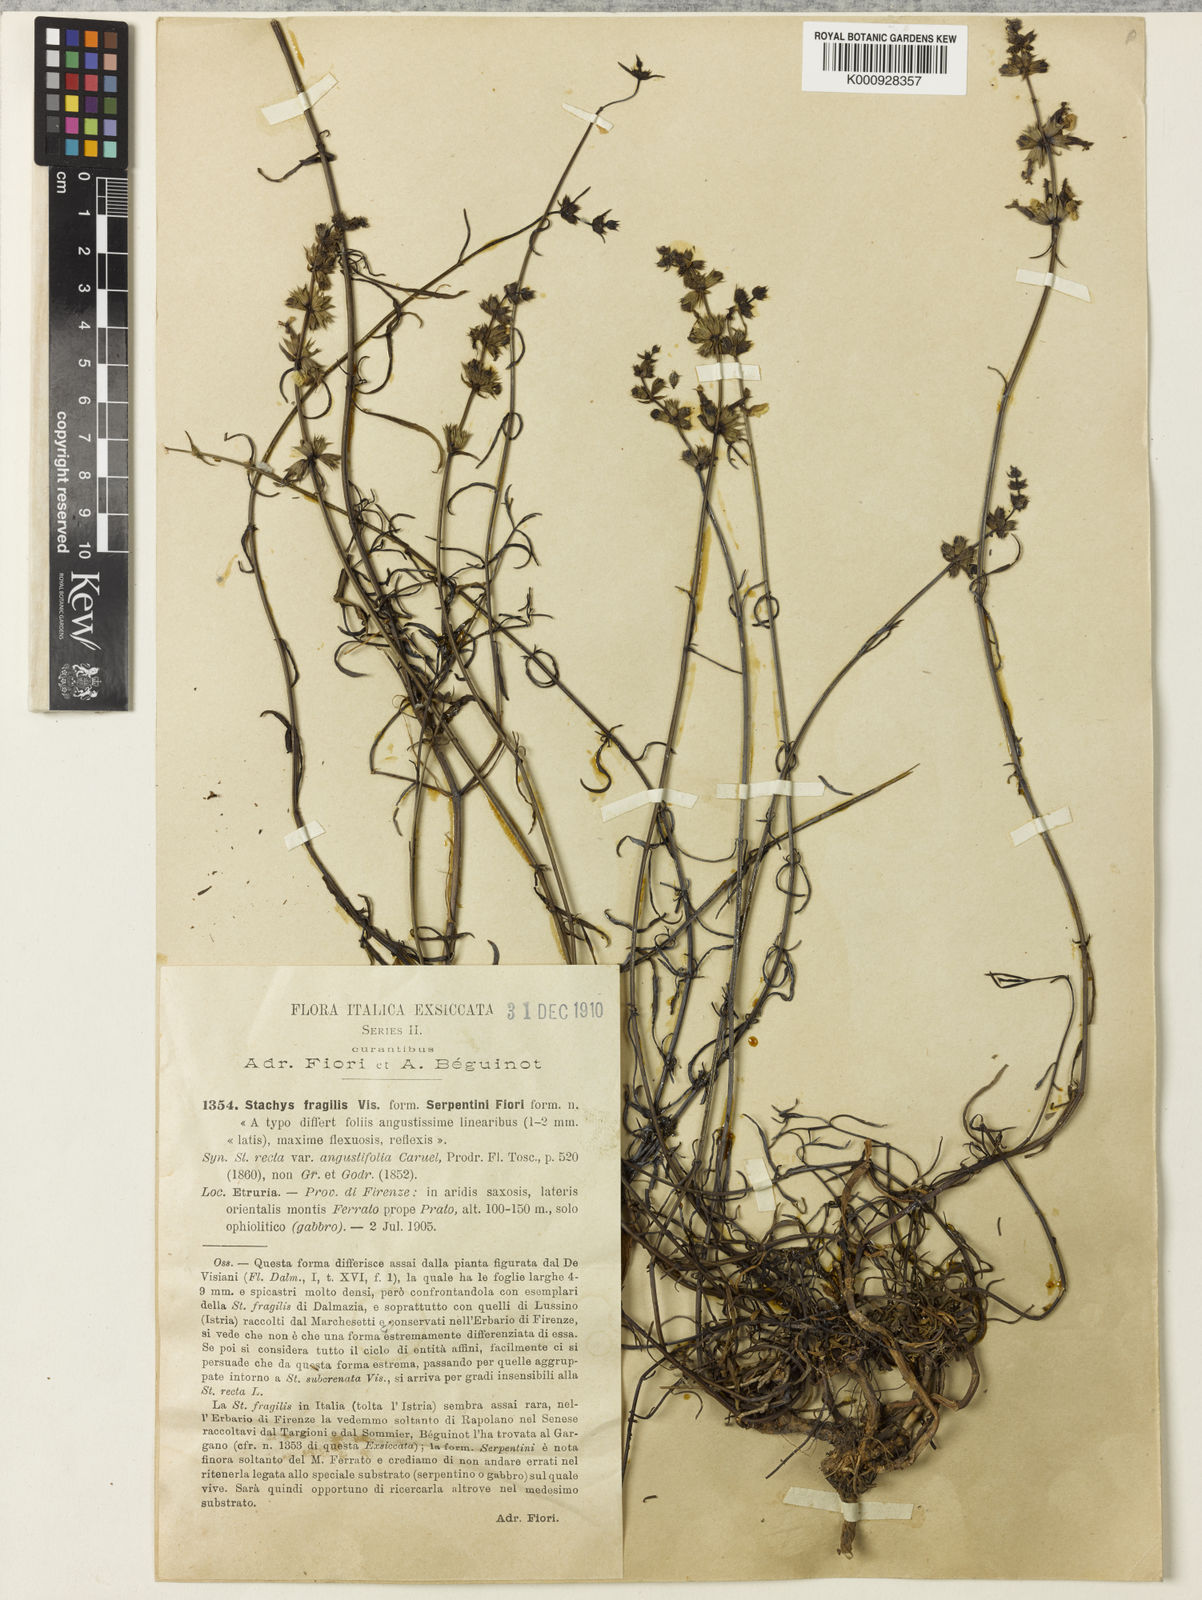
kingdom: Plantae
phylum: Tracheophyta
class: Magnoliopsida
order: Lamiales
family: Lamiaceae
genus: Stachys
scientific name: Stachys recta
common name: Perennial yellow-woundwort
